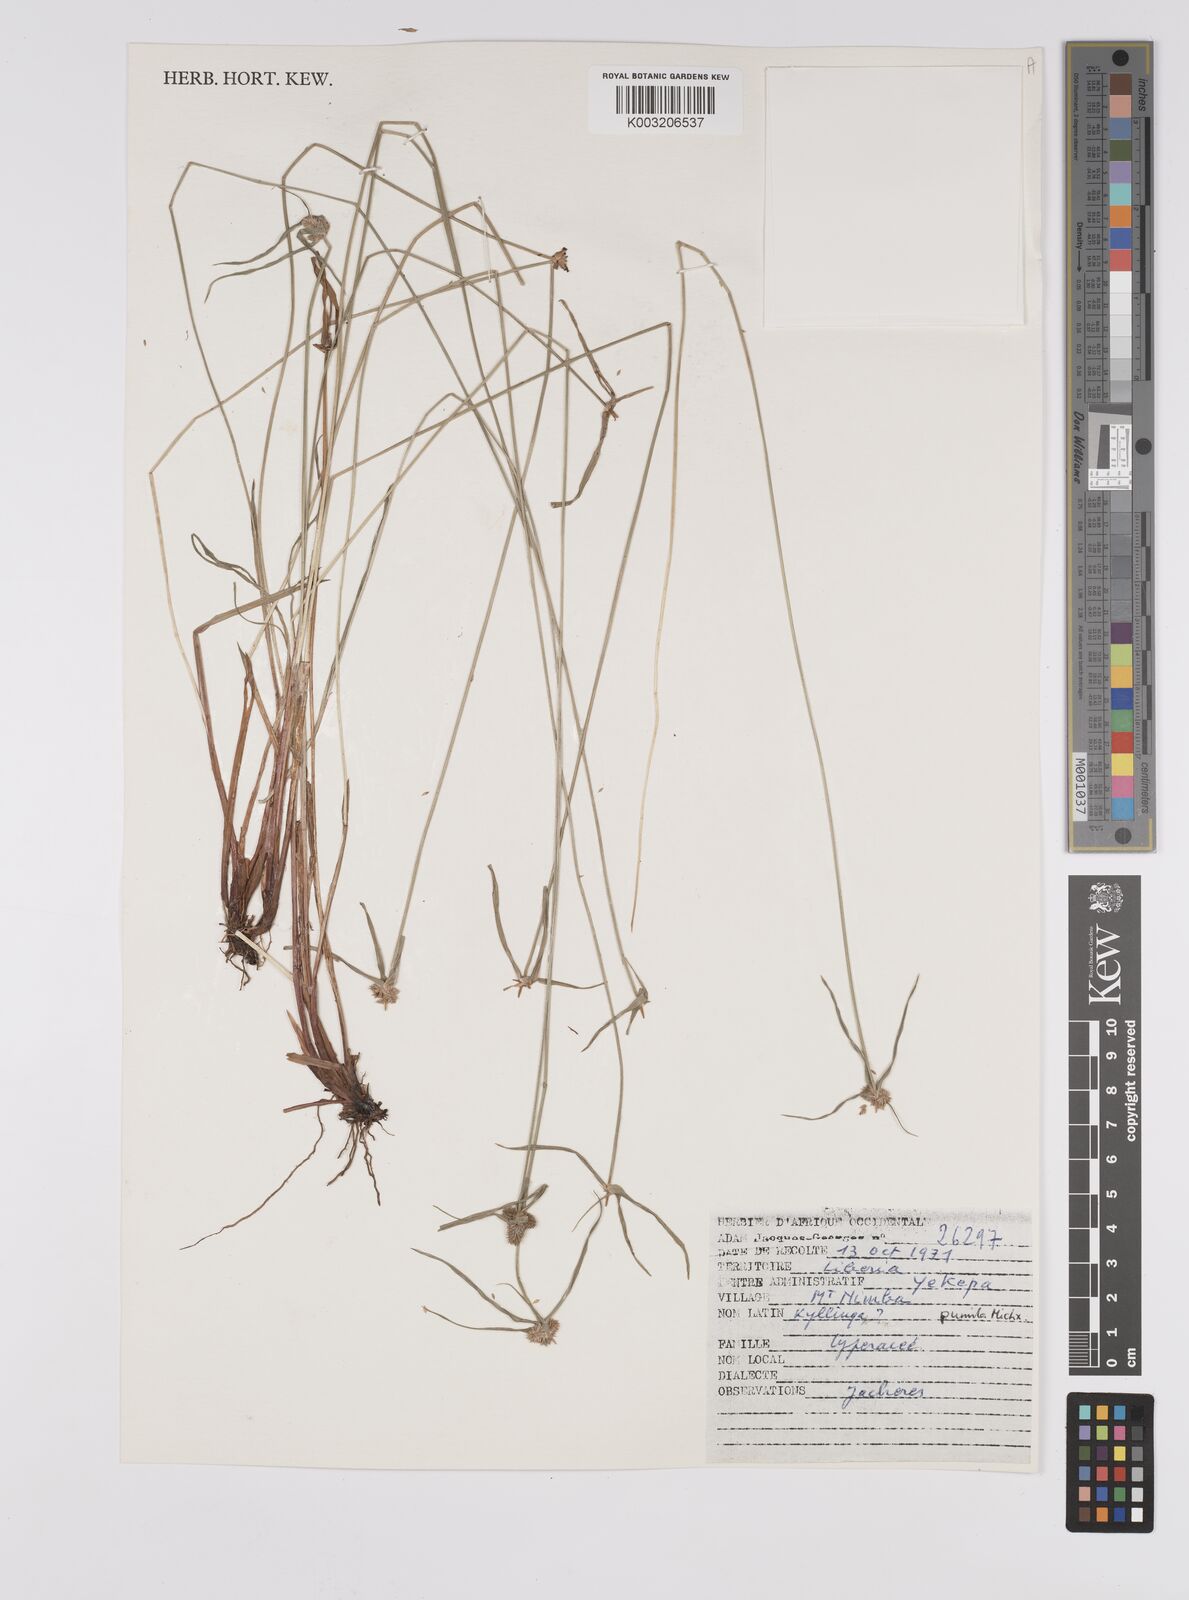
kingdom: Plantae
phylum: Tracheophyta
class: Liliopsida
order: Poales
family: Cyperaceae
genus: Cyperus
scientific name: Cyperus
